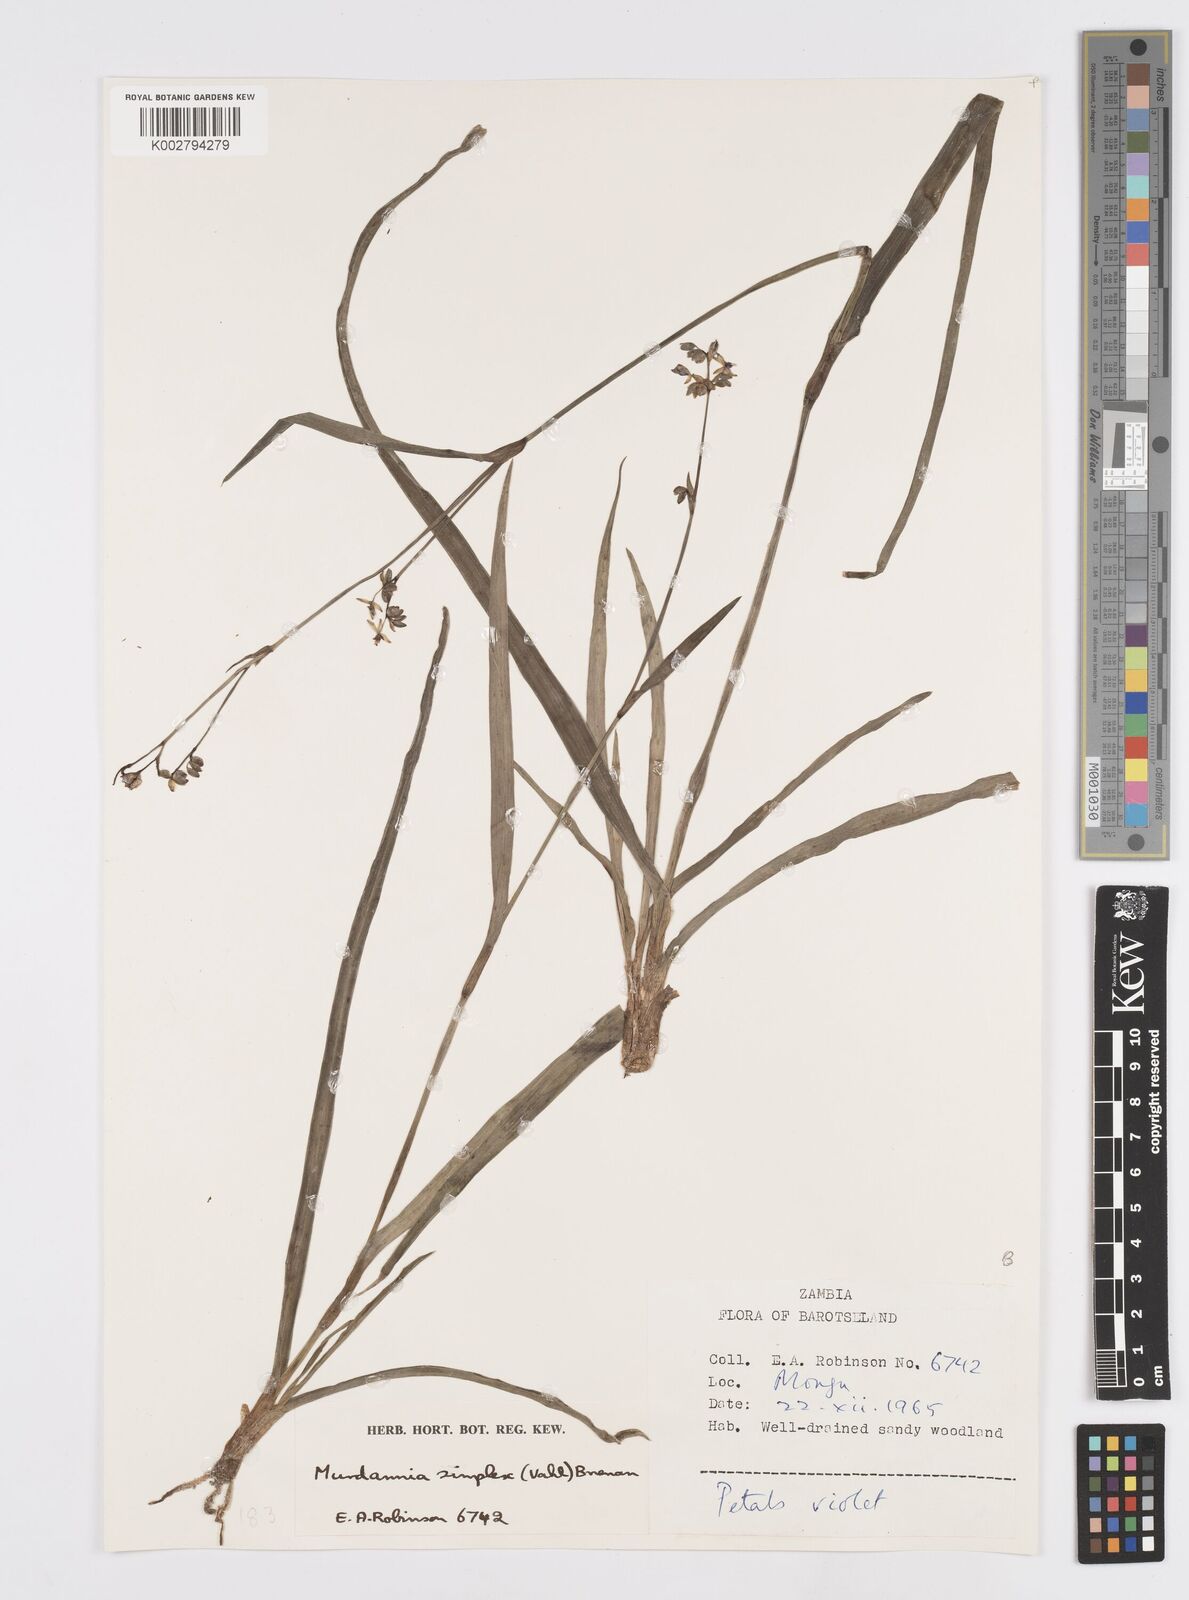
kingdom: Plantae
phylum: Tracheophyta
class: Liliopsida
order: Commelinales
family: Commelinaceae
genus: Murdannia
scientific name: Murdannia simplex
